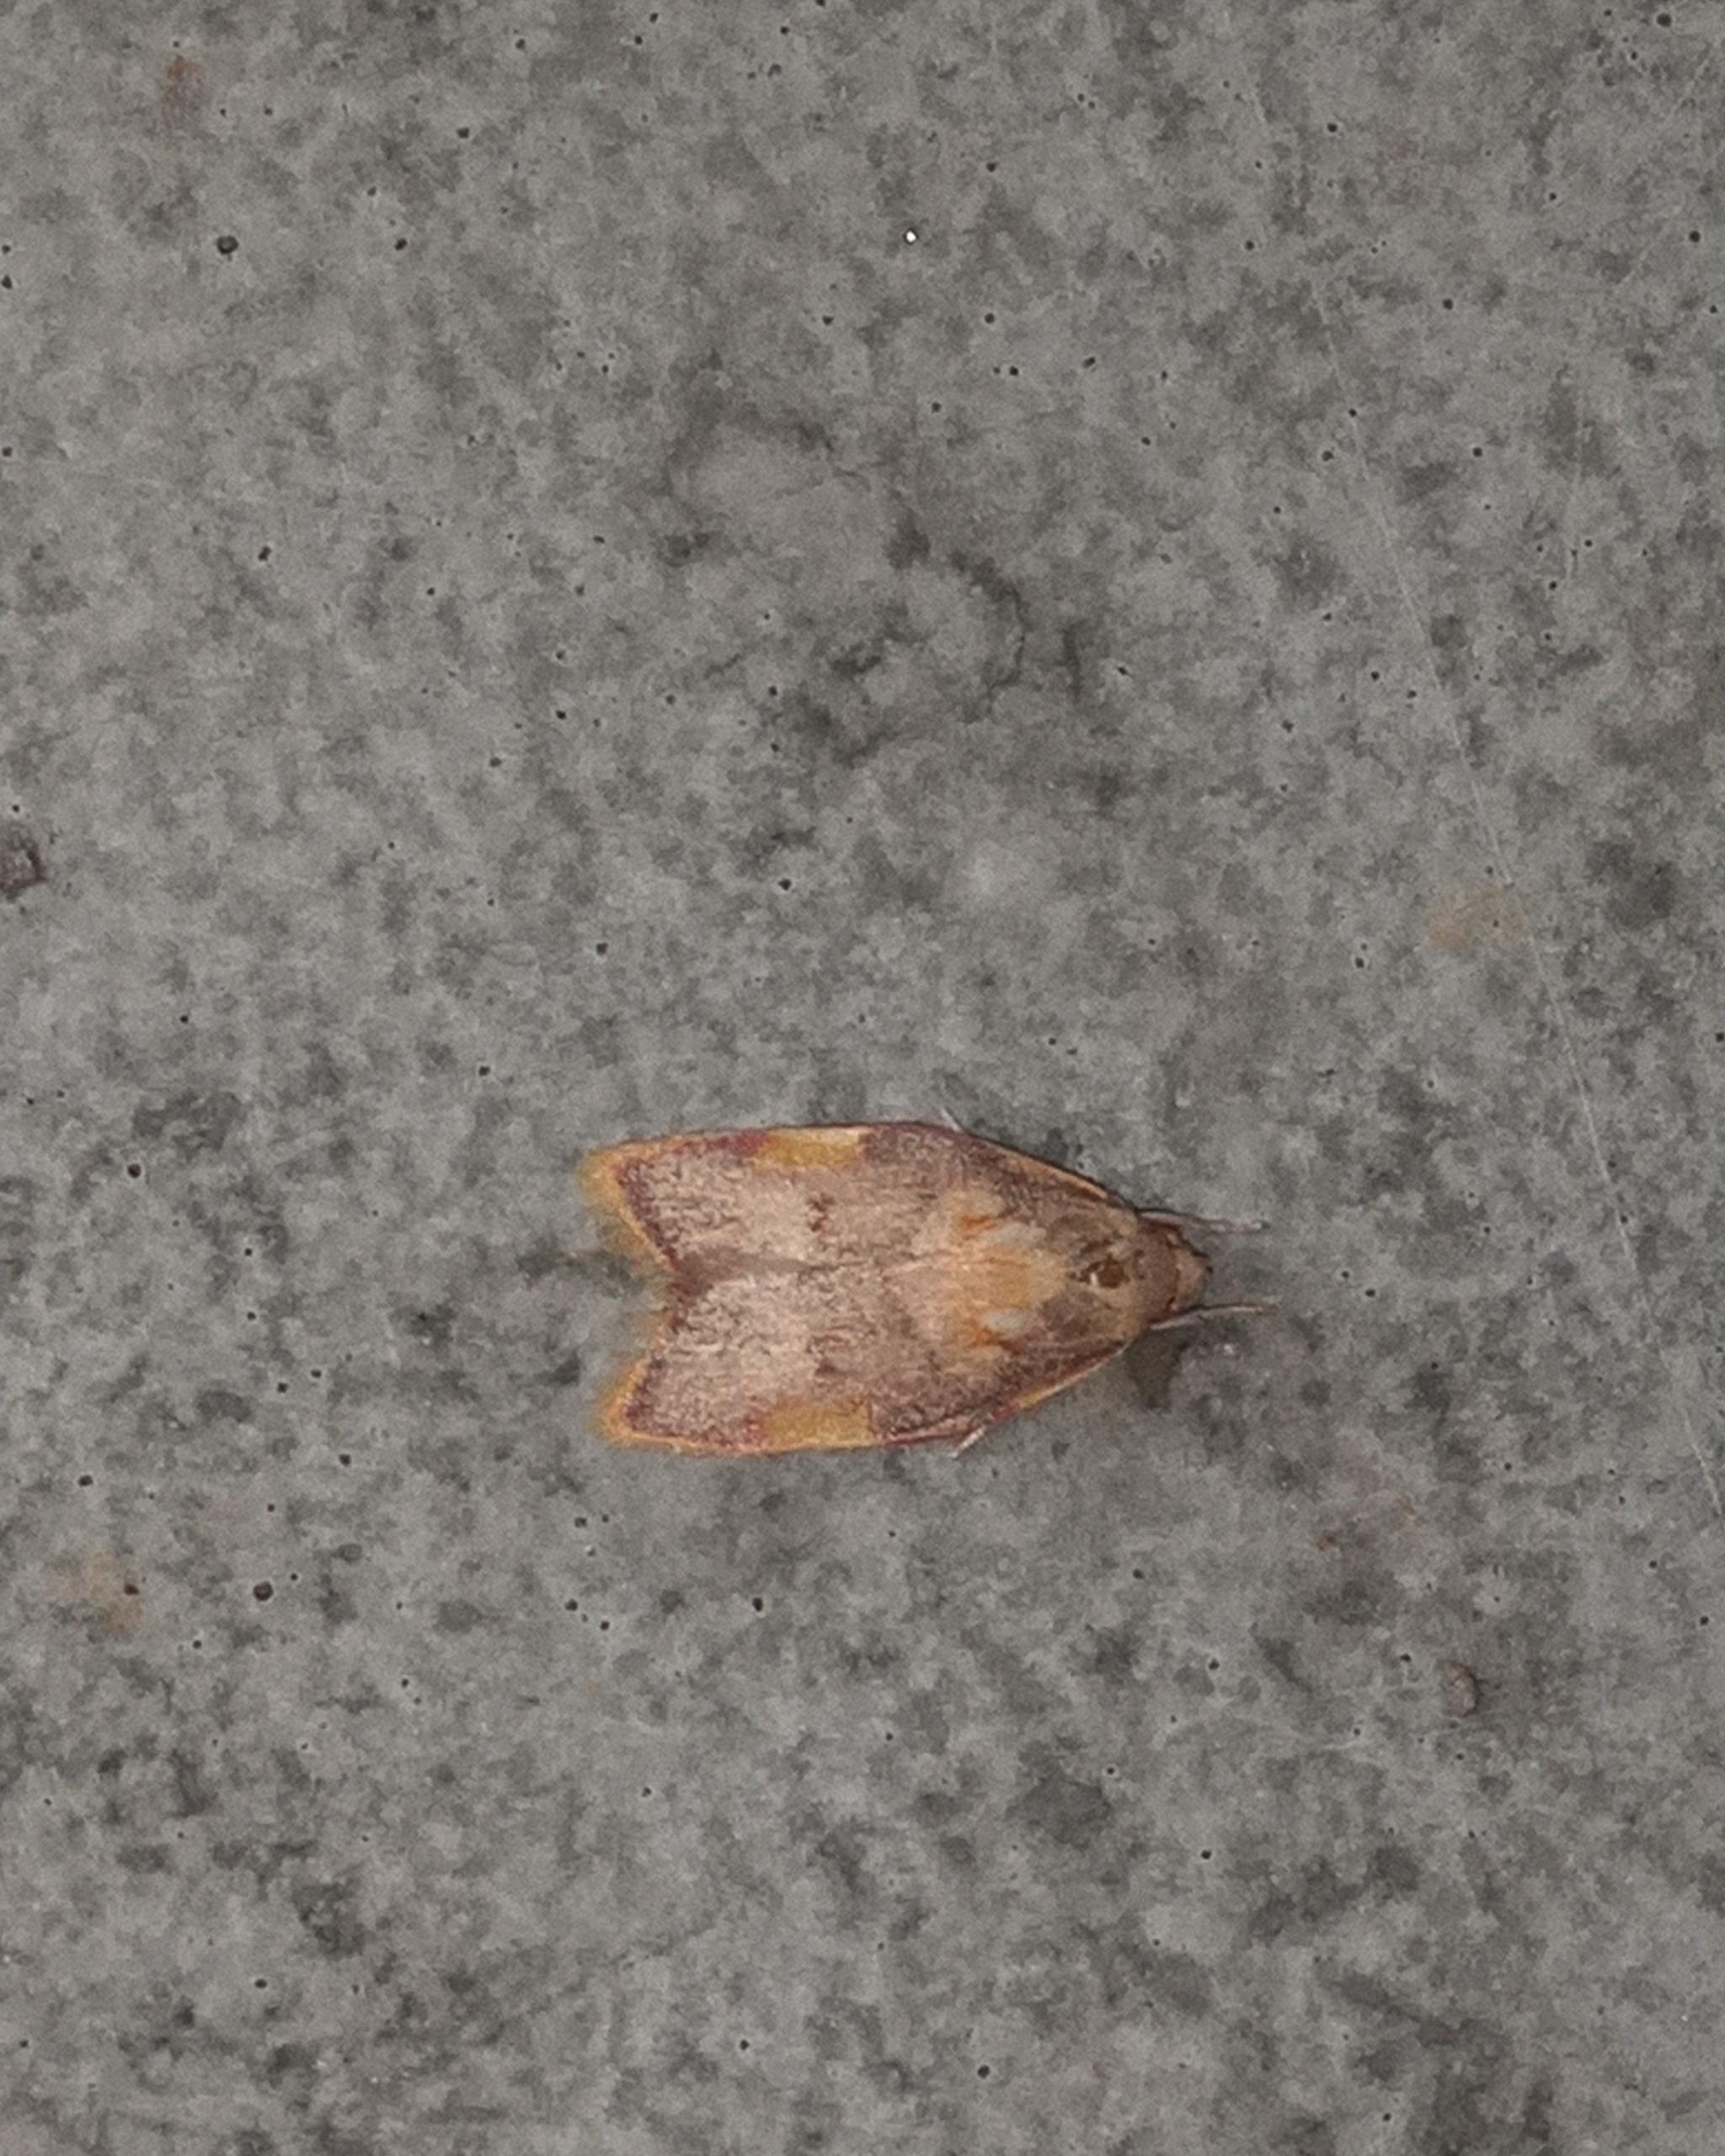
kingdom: Animalia
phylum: Arthropoda
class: Insecta
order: Lepidoptera
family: Peleopodidae
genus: Carcina
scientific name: Carcina quercana
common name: Egeprydvinge
